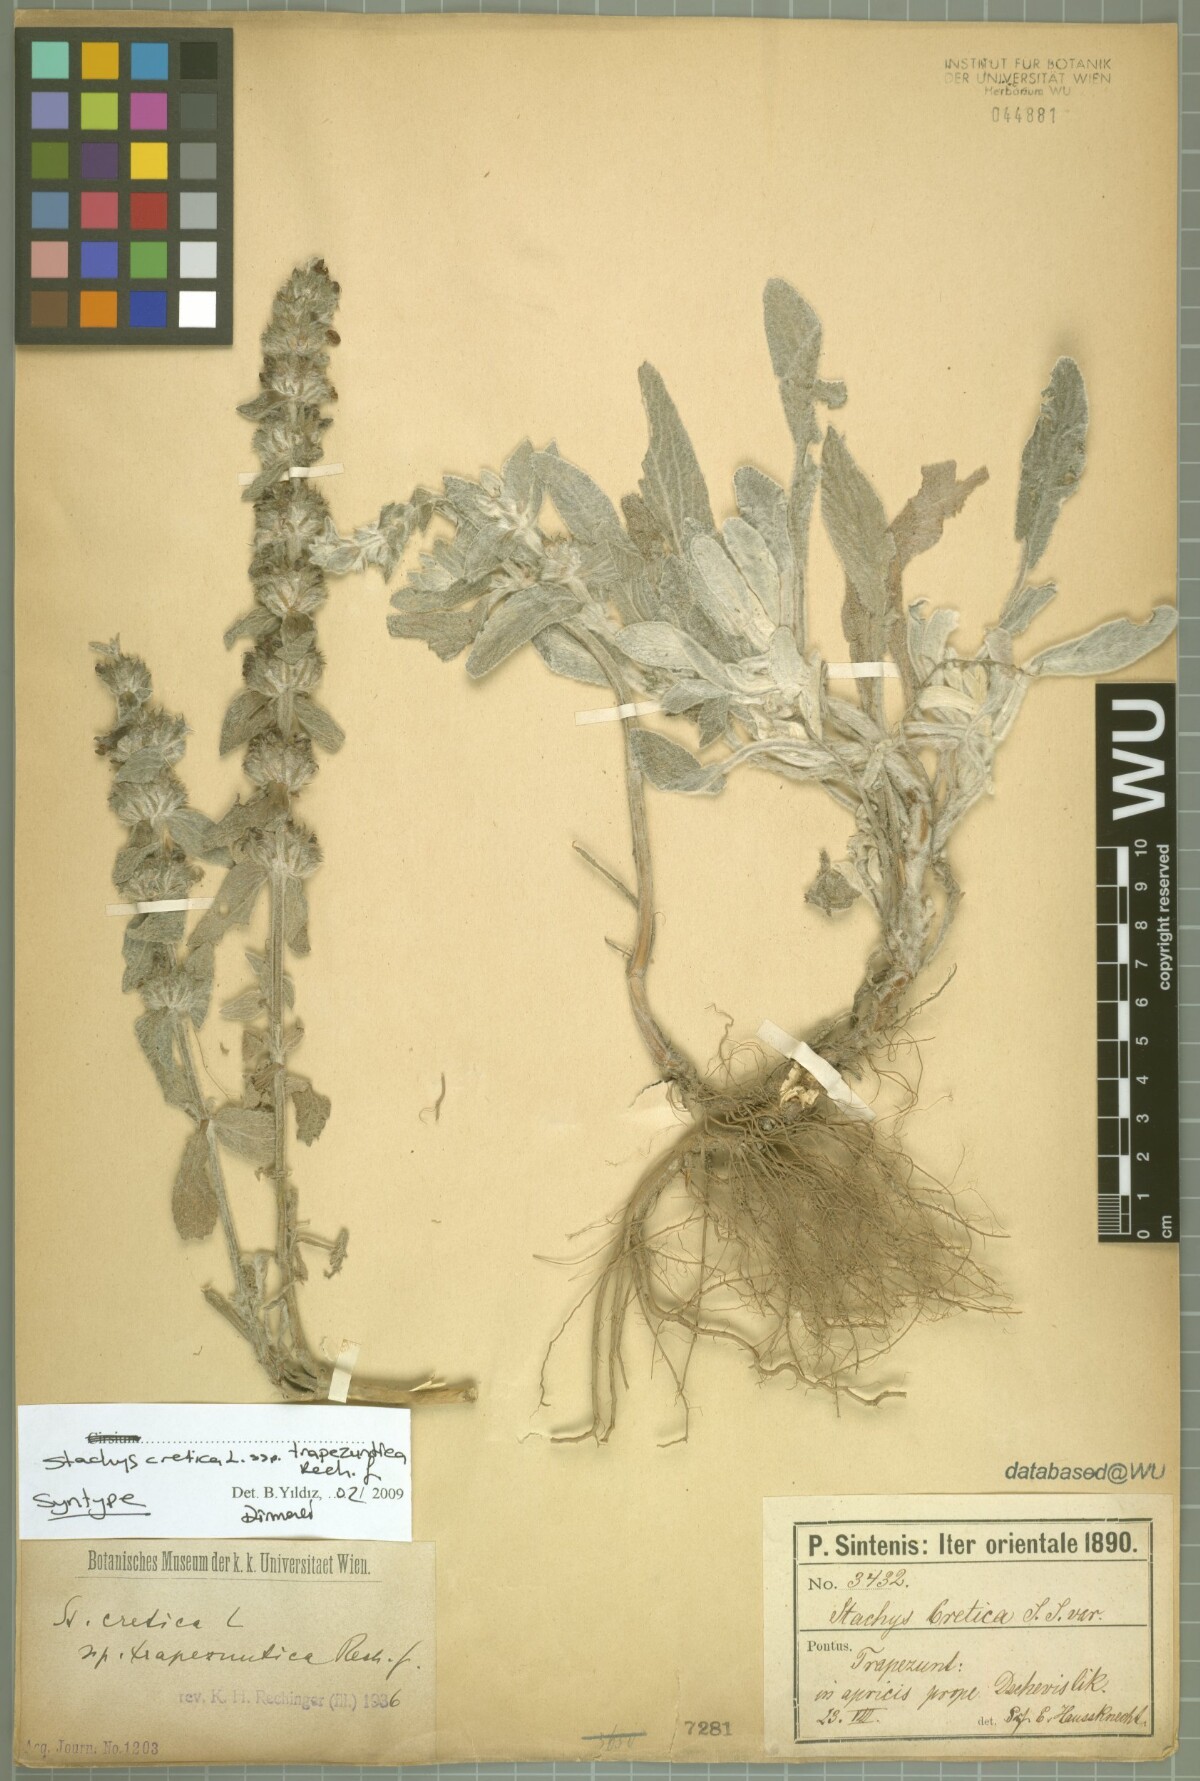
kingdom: Plantae
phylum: Tracheophyta
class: Magnoliopsida
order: Lamiales
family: Lamiaceae
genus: Stachys
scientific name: Stachys cretica
